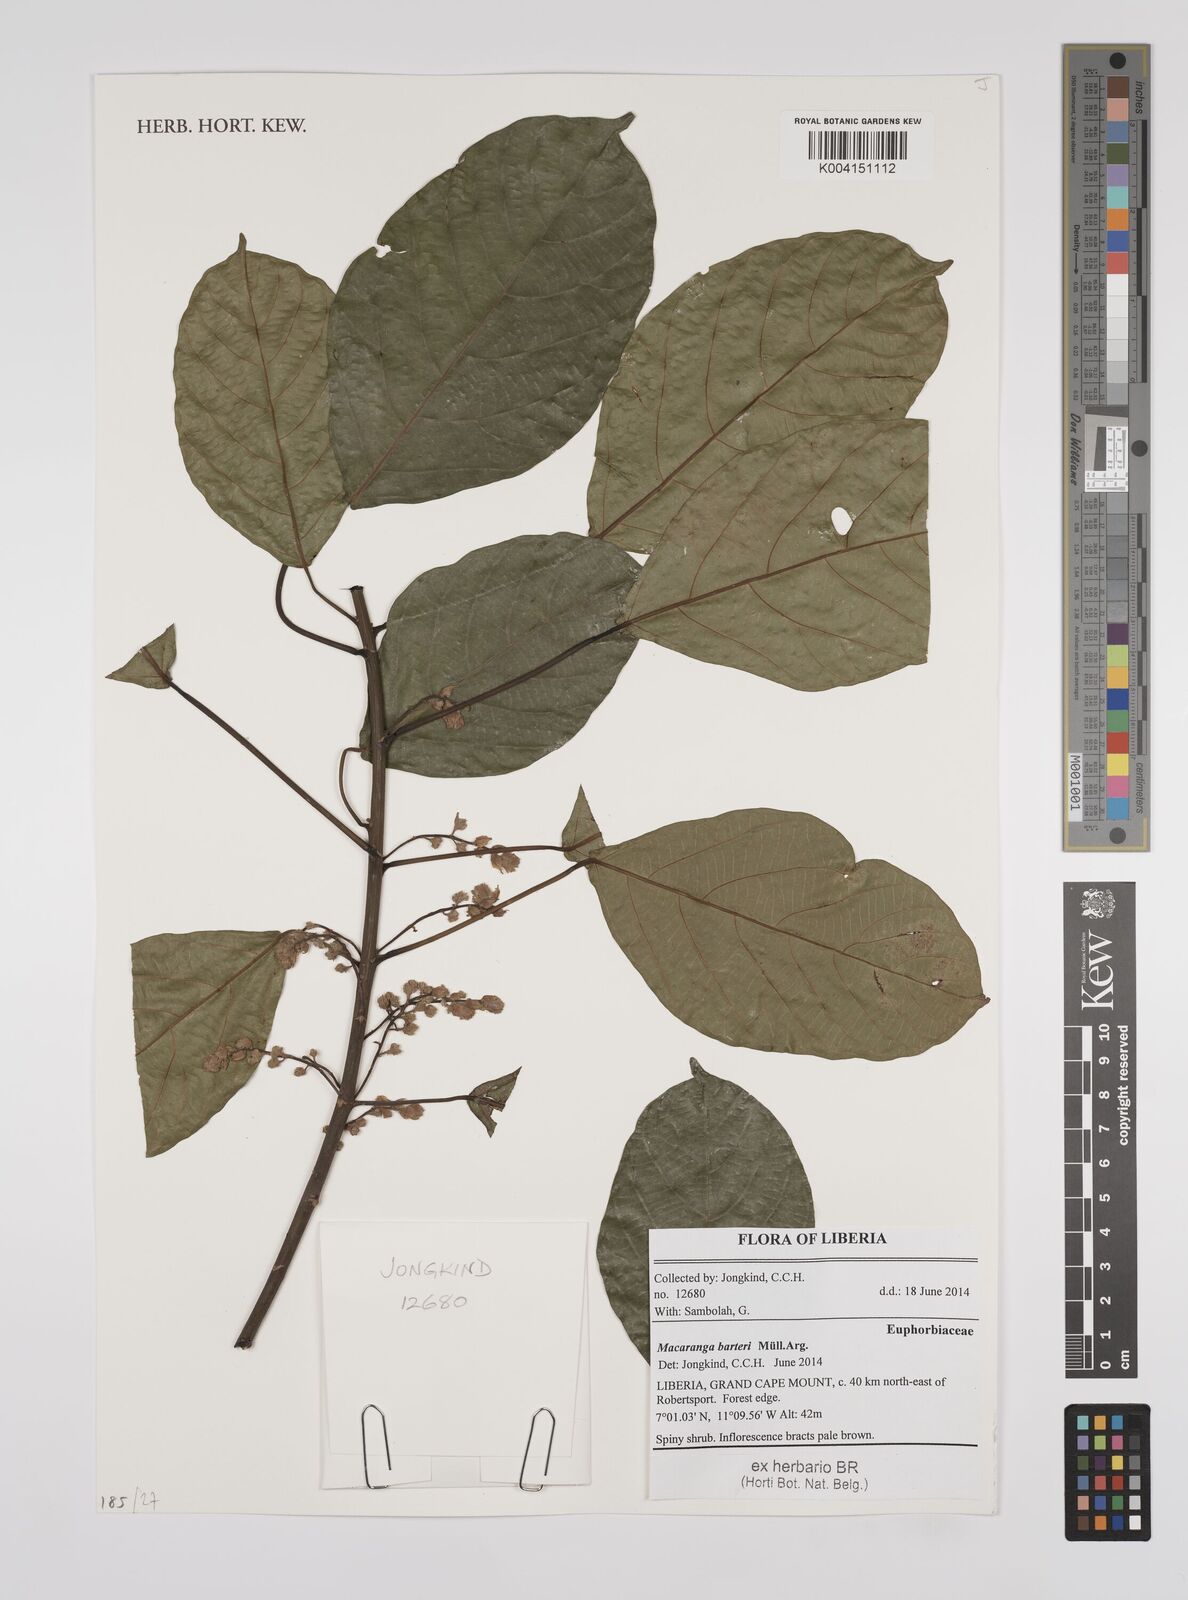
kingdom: Plantae
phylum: Tracheophyta
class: Magnoliopsida
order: Malpighiales
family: Euphorbiaceae
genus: Macaranga
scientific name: Macaranga barteri
